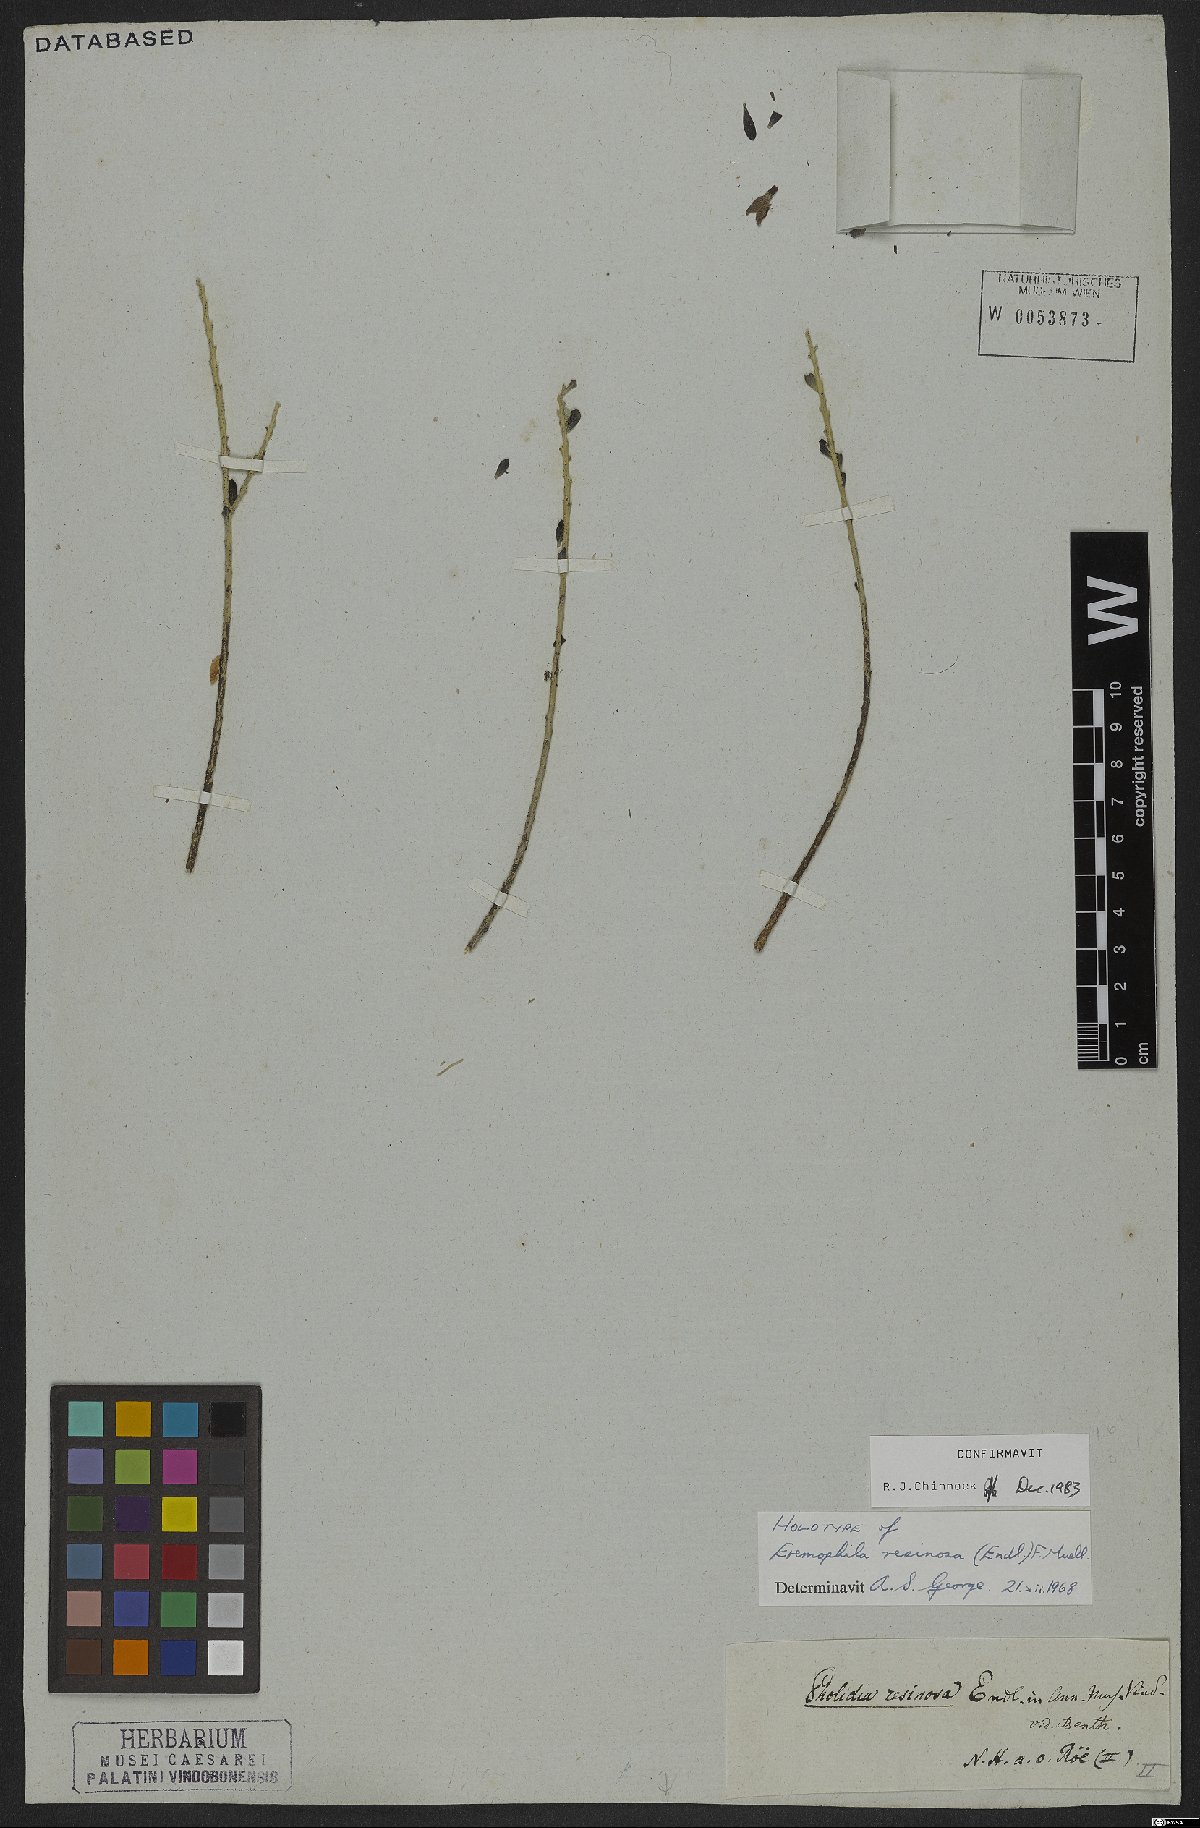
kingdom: Plantae
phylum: Tracheophyta
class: Magnoliopsida
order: Lamiales
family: Scrophulariaceae
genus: Eremophila
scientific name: Eremophila resinosa
